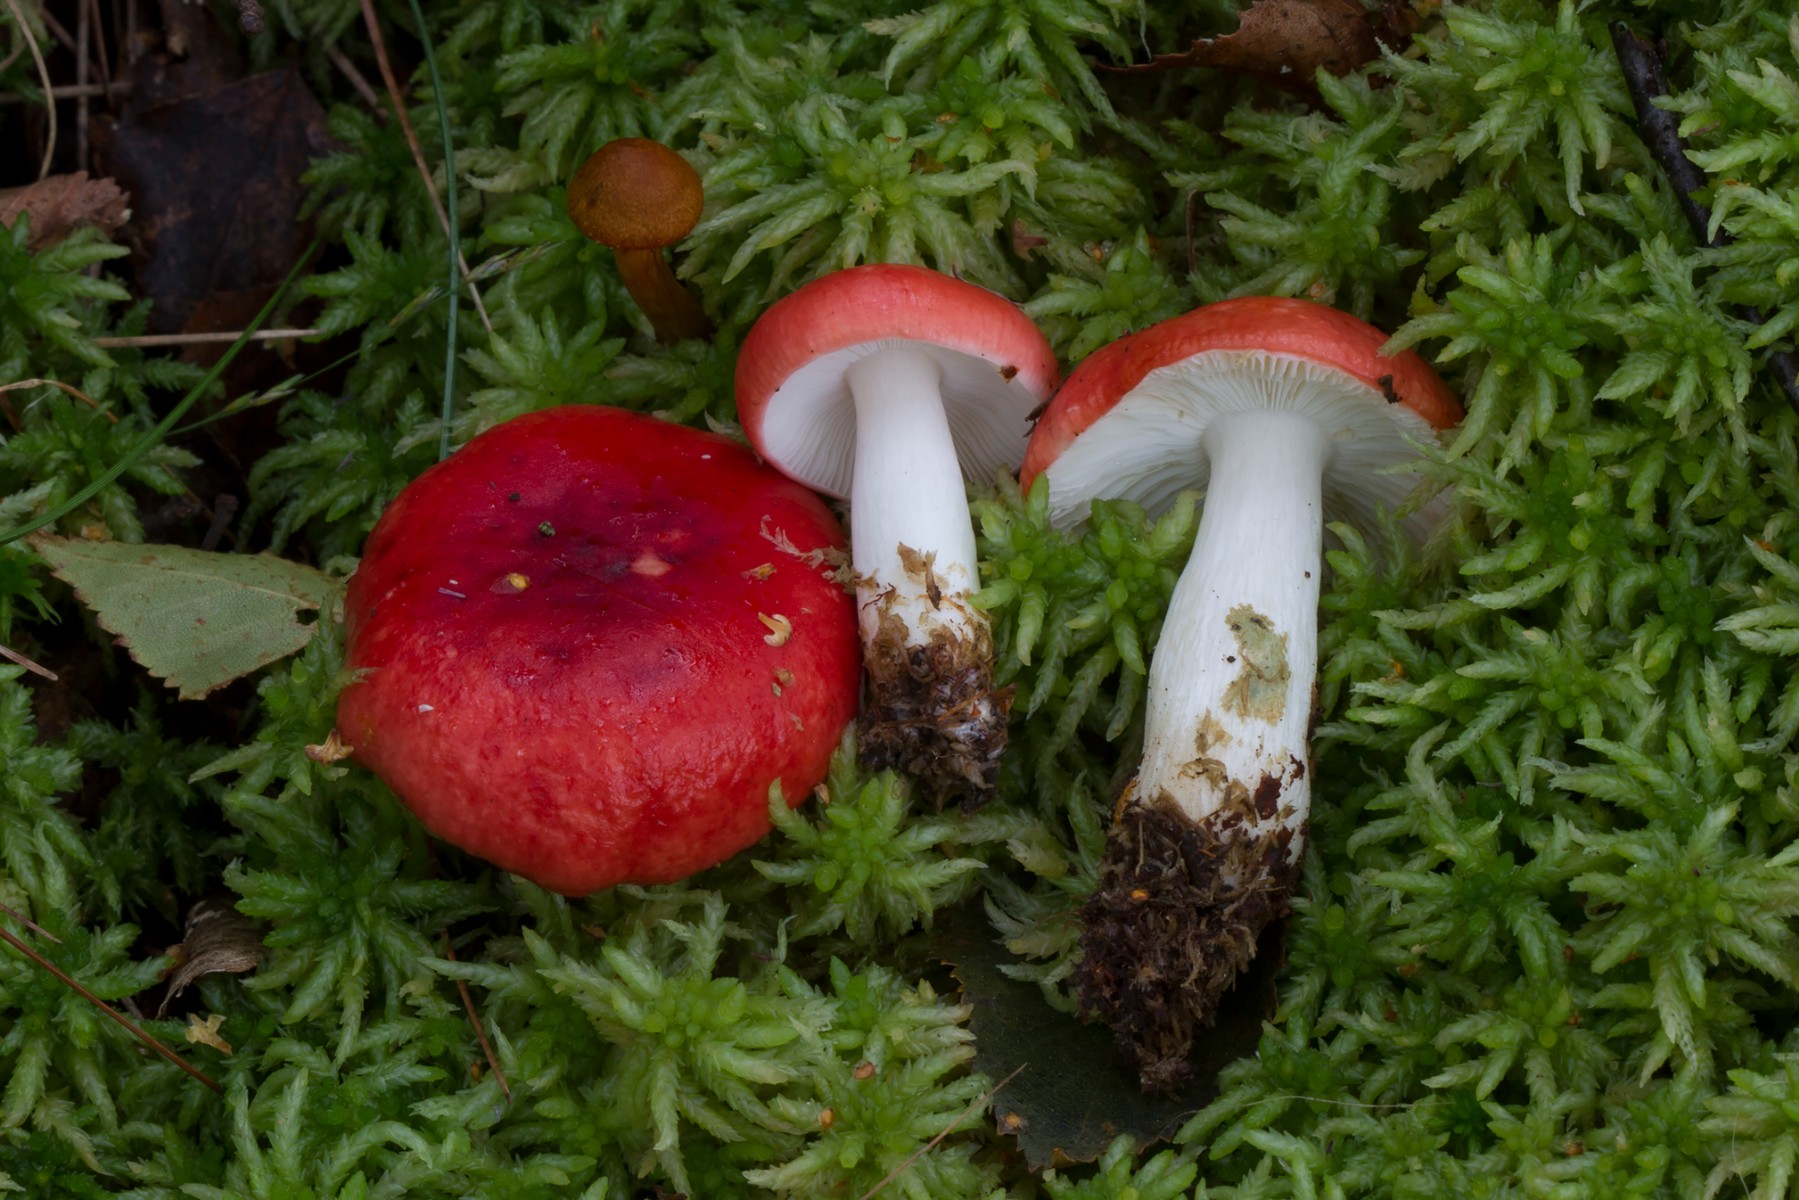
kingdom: Fungi
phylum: Basidiomycota
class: Agaricomycetes
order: Russulales
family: Russulaceae
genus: Russula
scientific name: Russula silvestris
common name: mellemstor gift-skørhat
